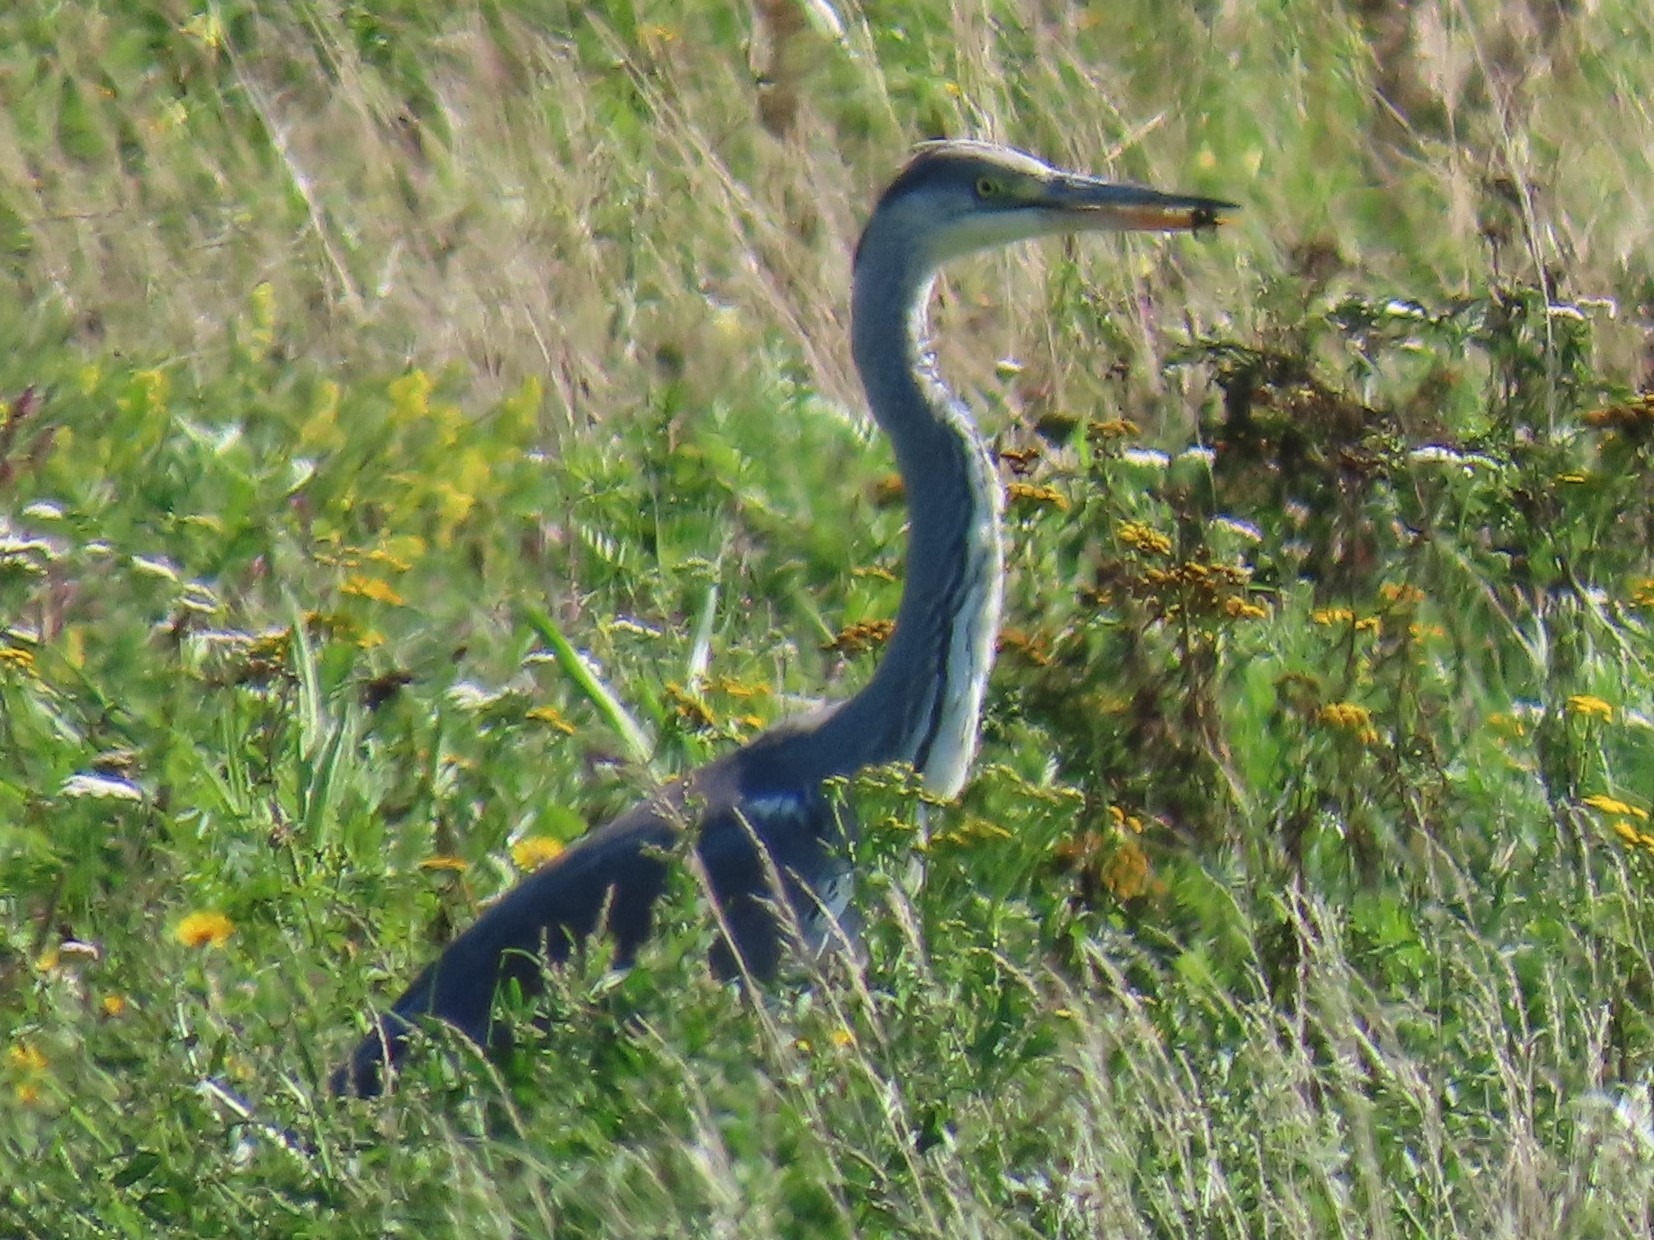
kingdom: Animalia
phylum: Chordata
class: Aves
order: Pelecaniformes
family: Ardeidae
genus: Ardea
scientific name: Ardea cinerea
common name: Fiskehejre
